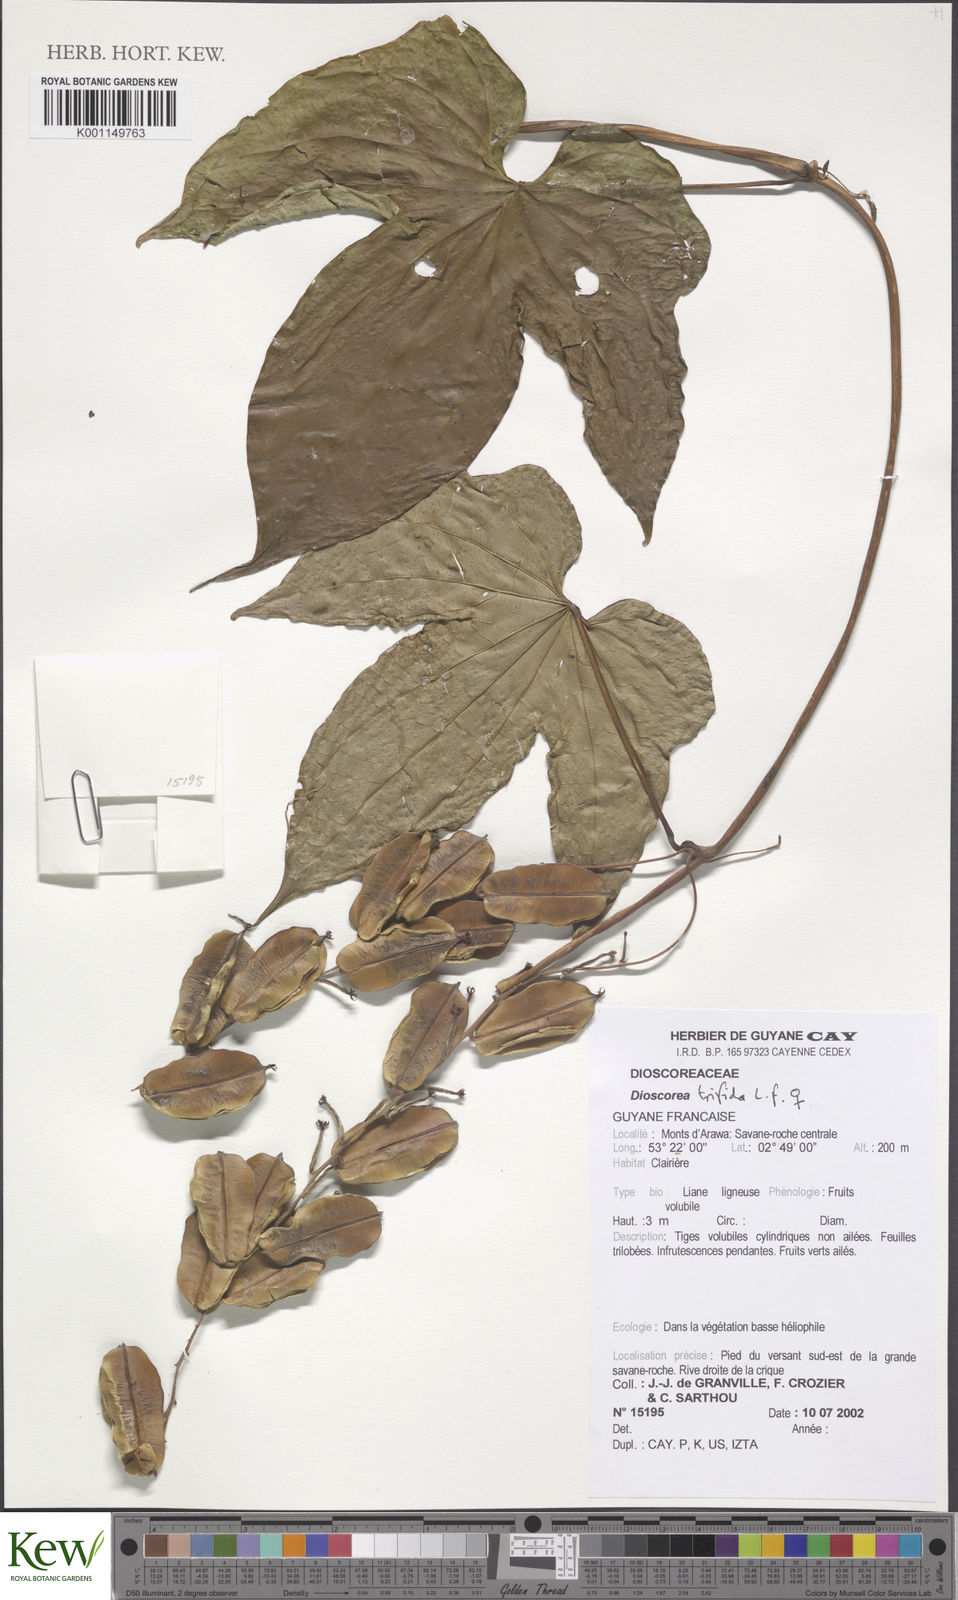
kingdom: Plantae
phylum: Tracheophyta
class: Liliopsida
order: Dioscoreales
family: Dioscoreaceae
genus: Dioscorea
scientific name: Dioscorea trifida
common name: Cush-cush
